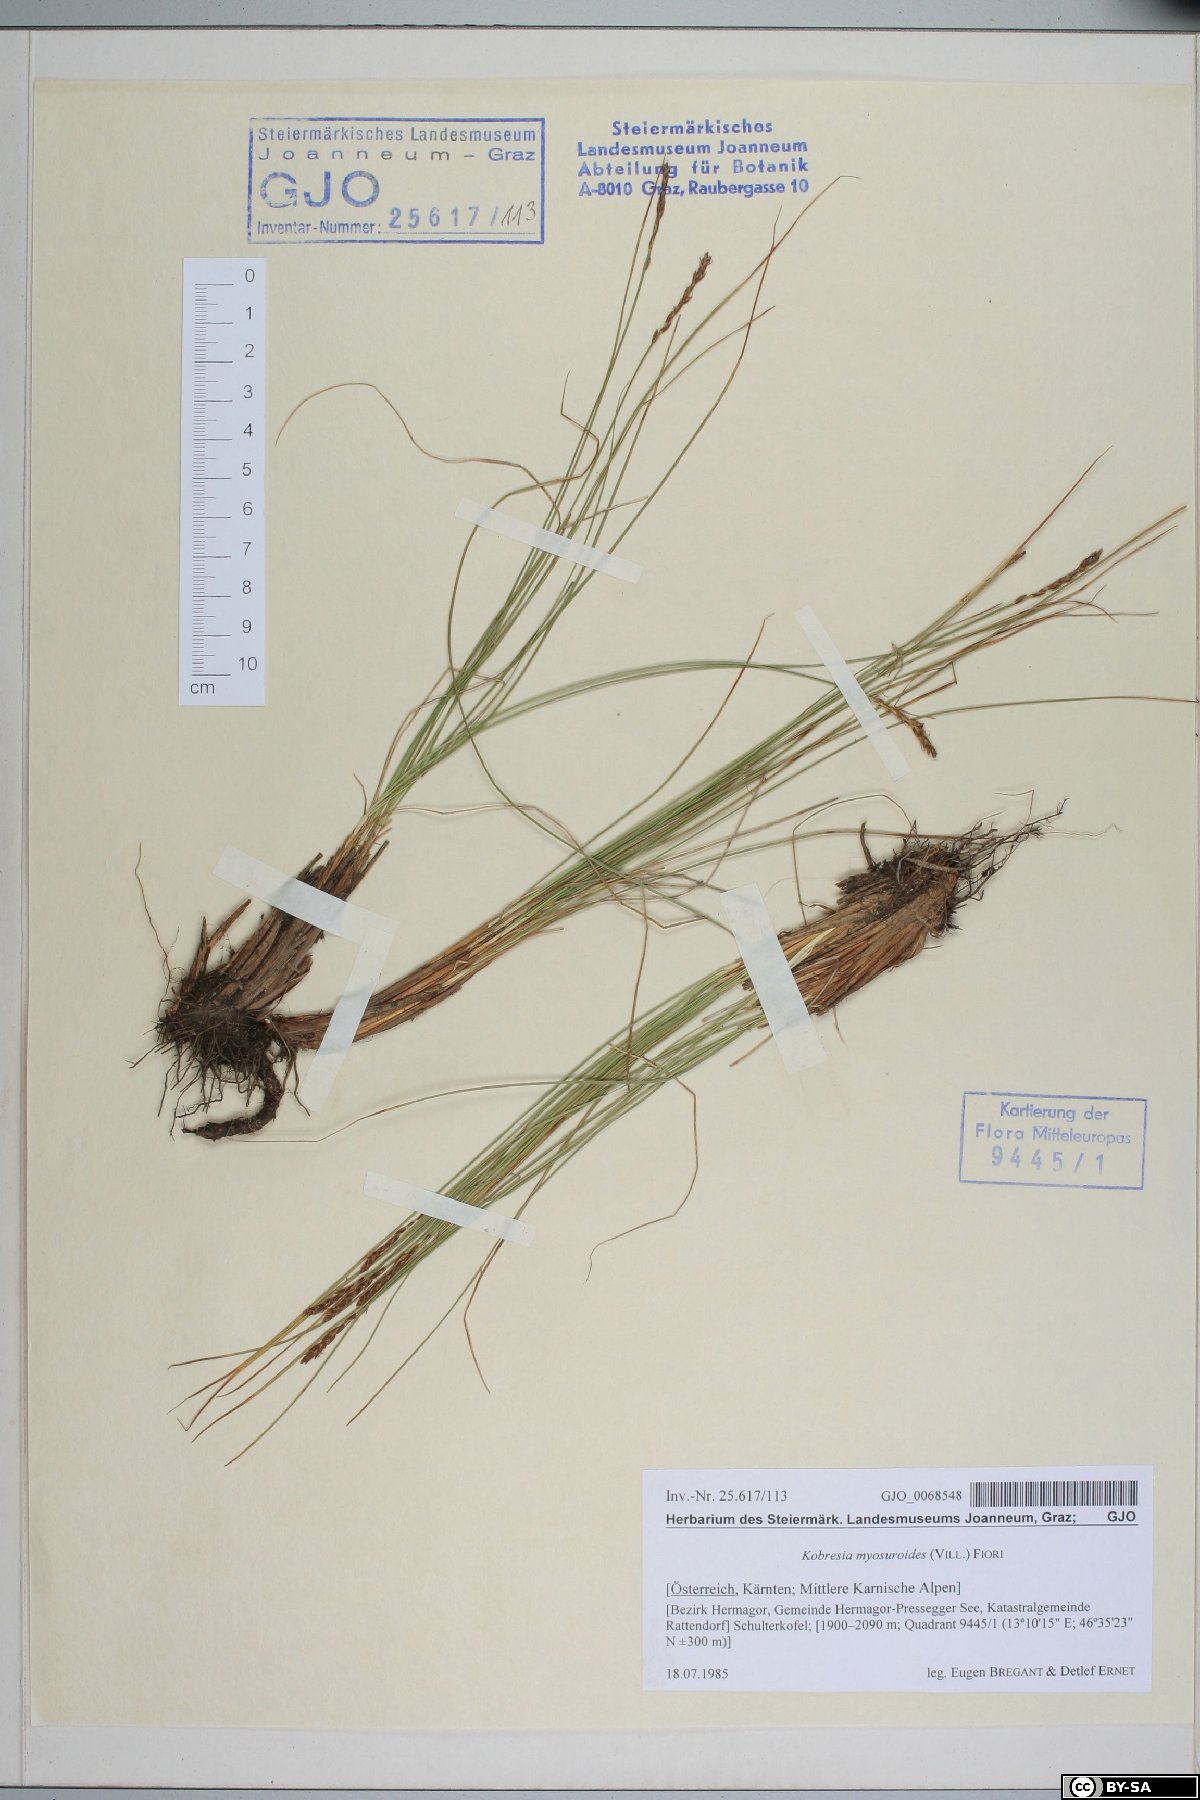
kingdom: Plantae
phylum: Tracheophyta
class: Liliopsida
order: Poales
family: Cyperaceae
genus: Carex
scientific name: Carex myosuroides
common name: Bellard's bog sedge
